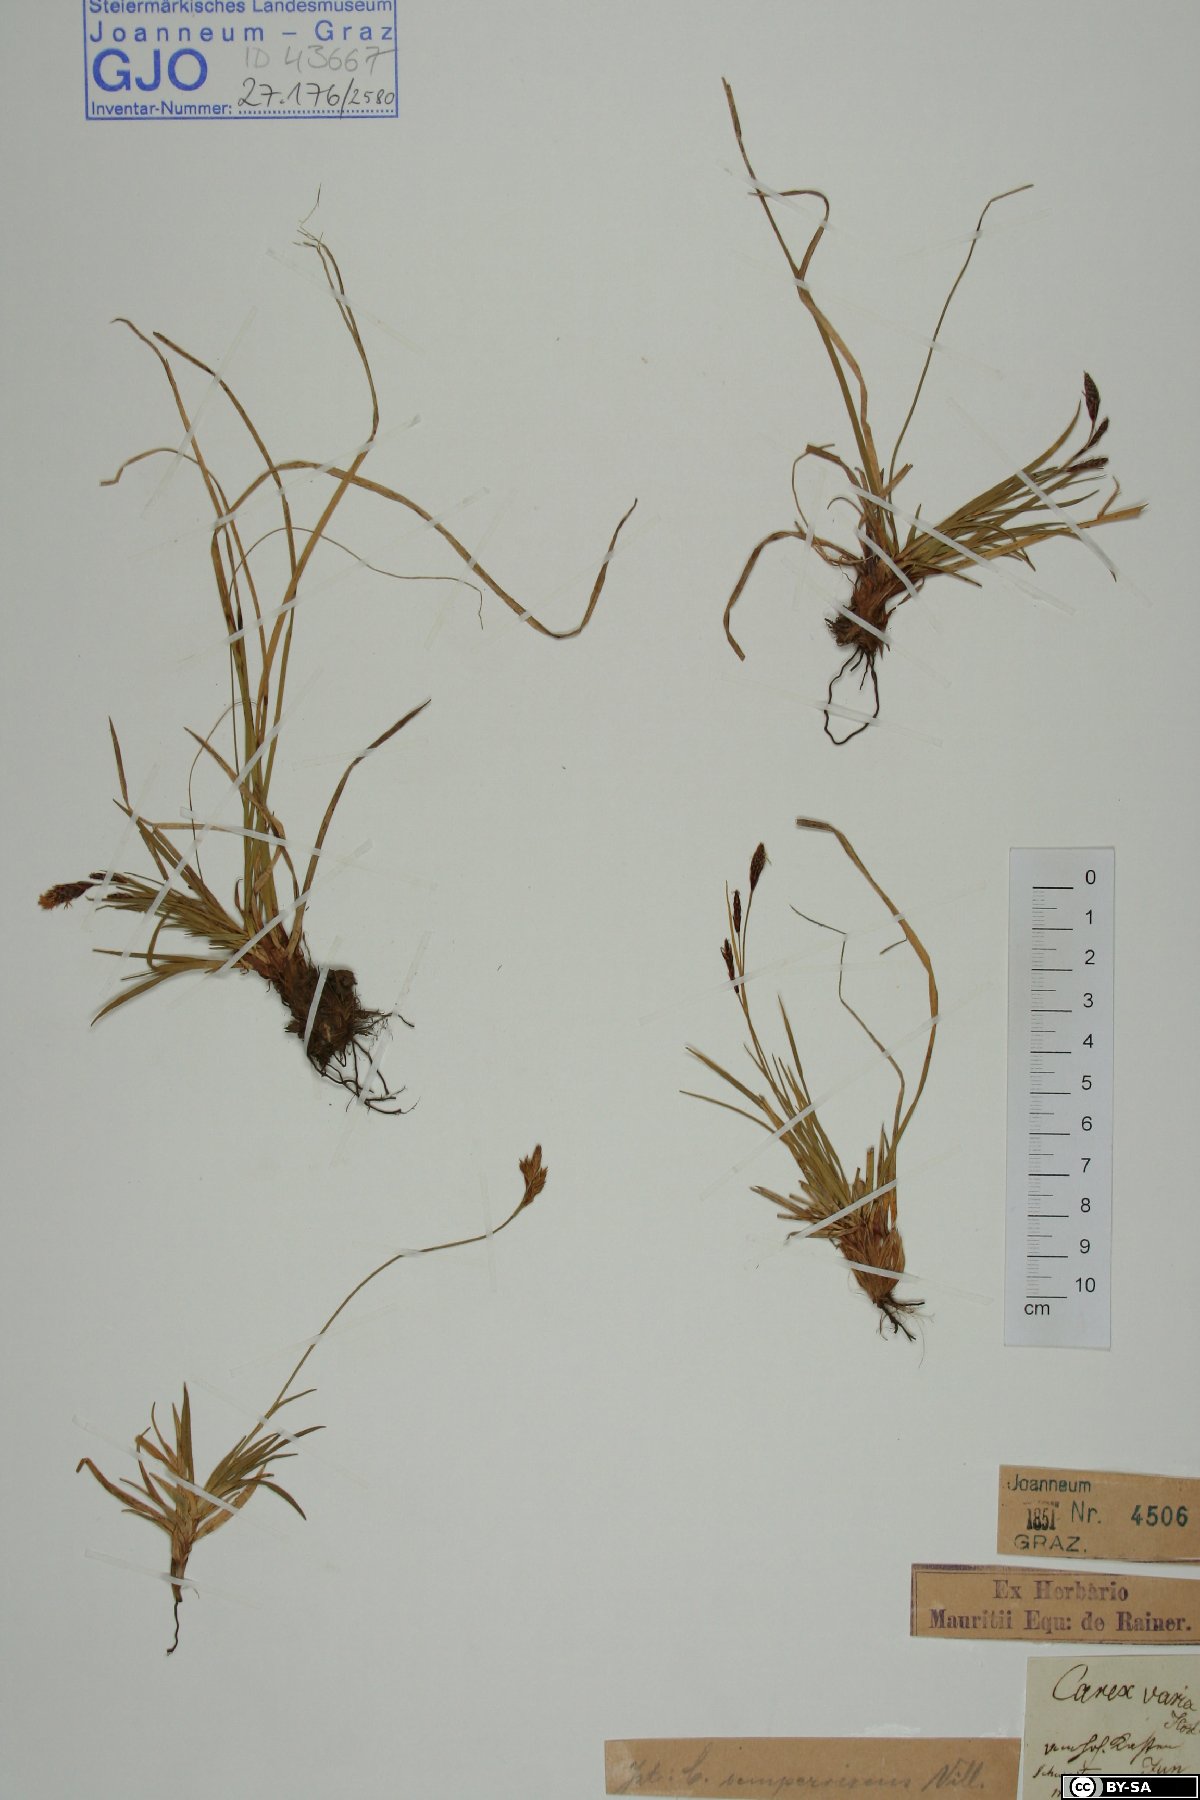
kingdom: Plantae
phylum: Tracheophyta
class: Liliopsida
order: Poales
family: Cyperaceae
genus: Carex
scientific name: Carex sempervirens
